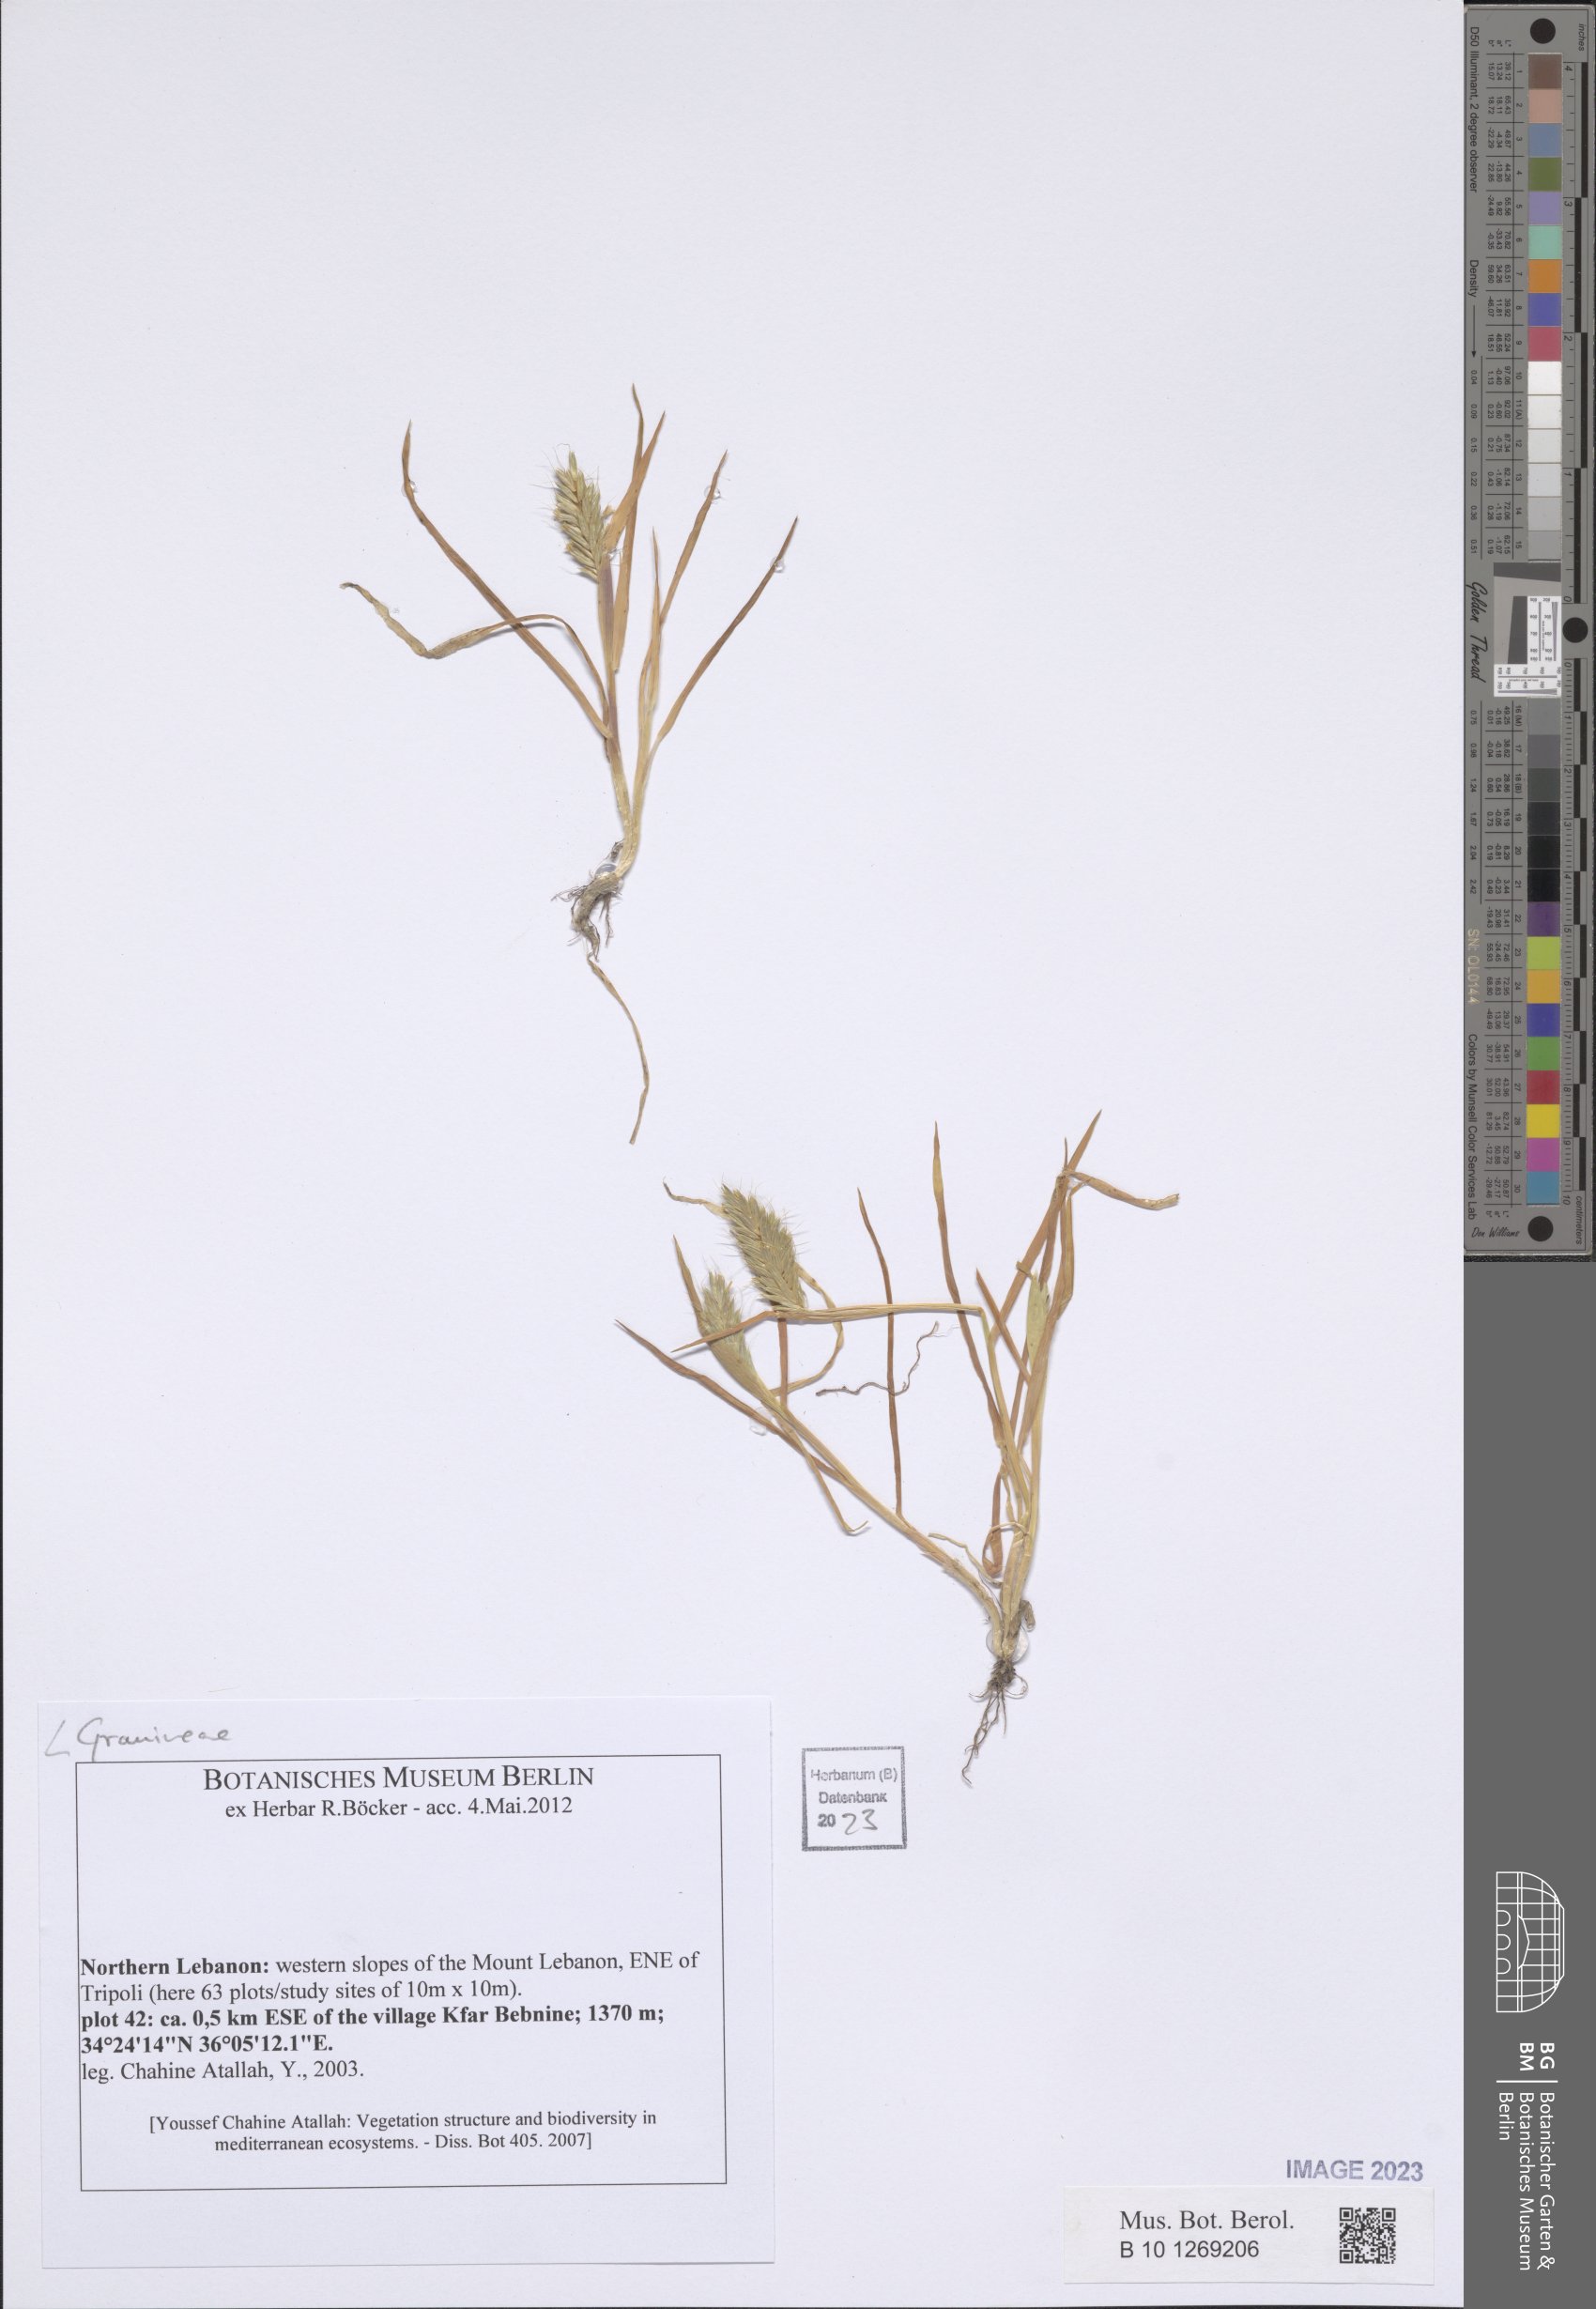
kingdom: Plantae
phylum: Tracheophyta
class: Liliopsida
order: Poales
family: Poaceae
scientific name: Poaceae
